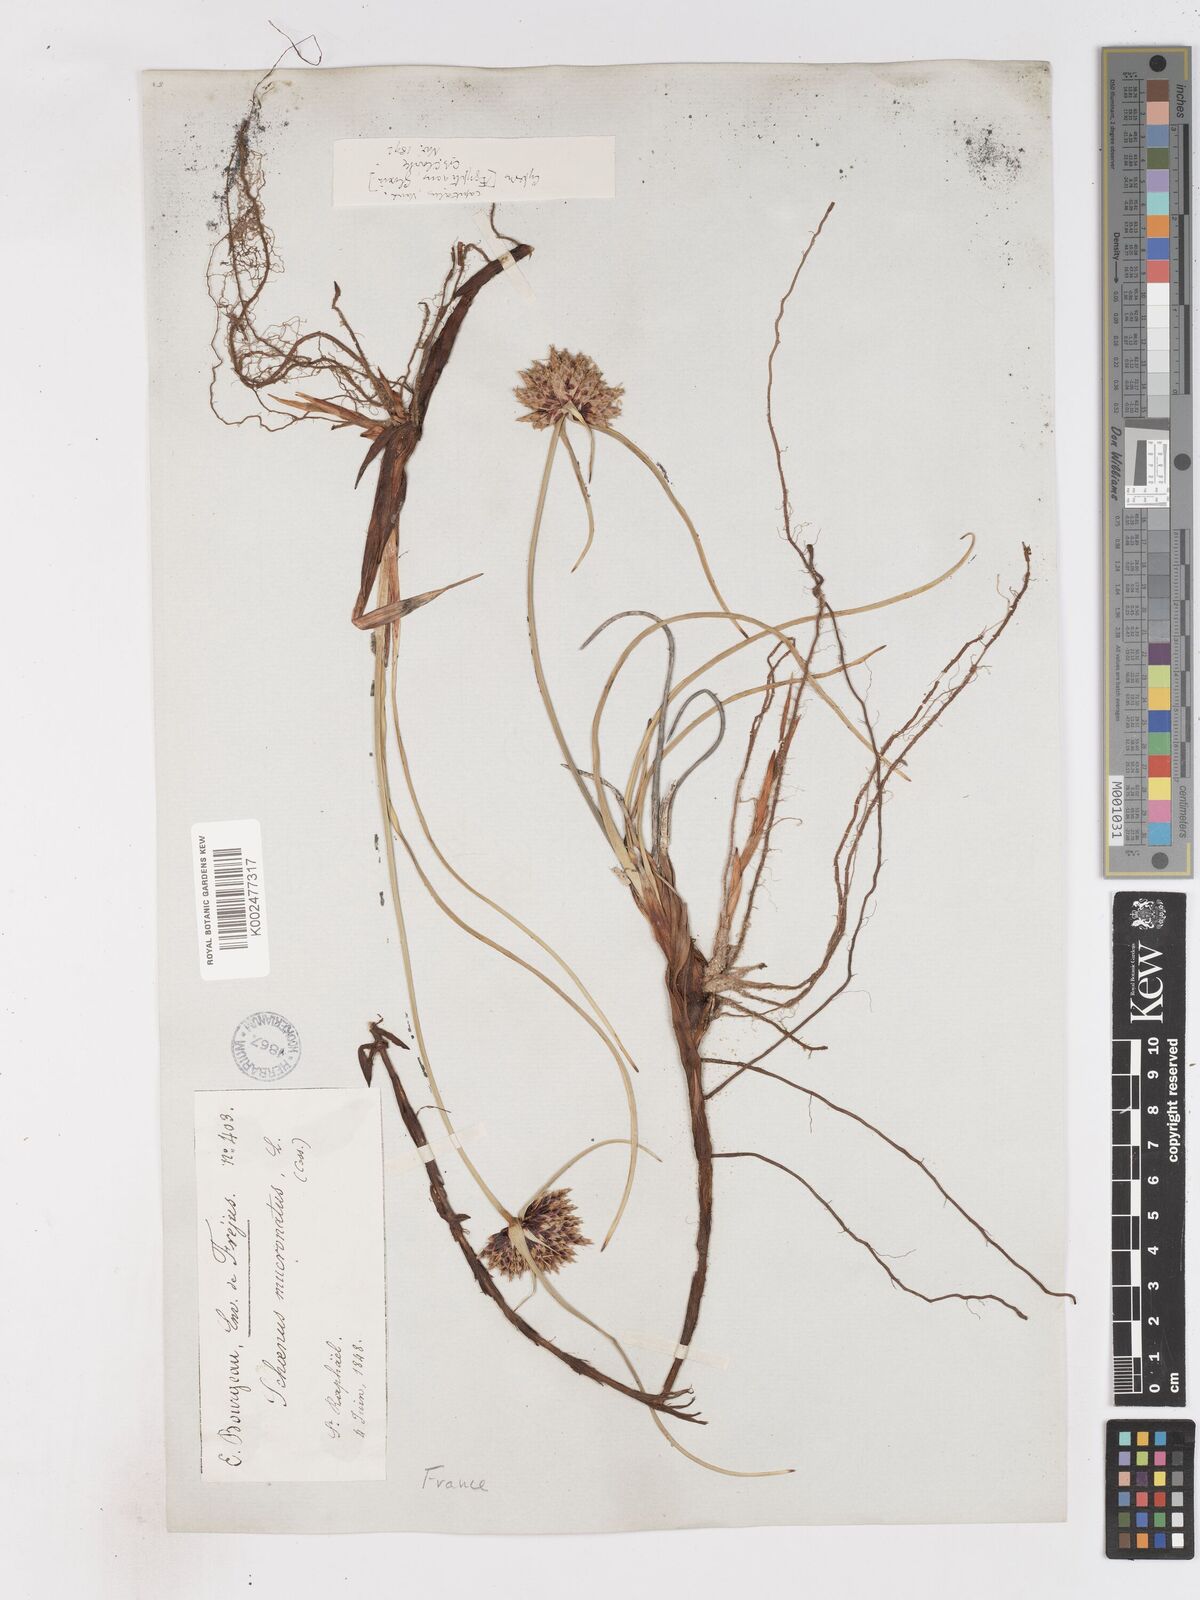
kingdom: Plantae
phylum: Tracheophyta
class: Liliopsida
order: Poales
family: Cyperaceae
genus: Cyperus
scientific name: Cyperus capitatus
